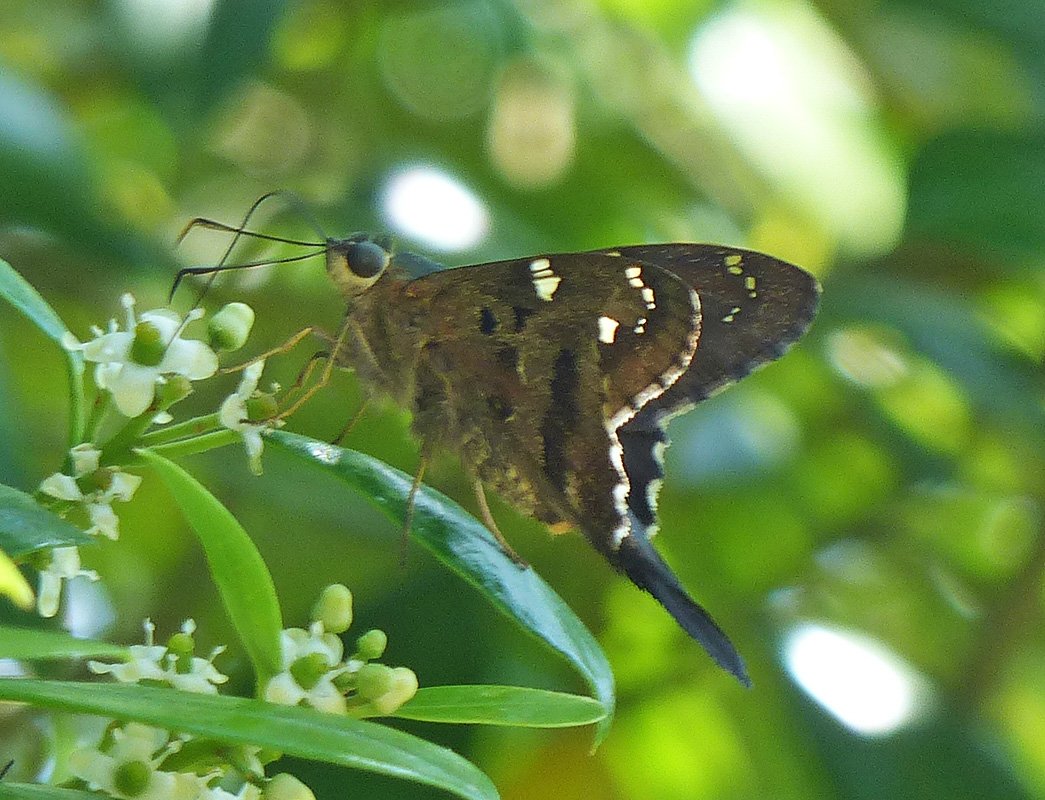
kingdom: Animalia
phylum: Arthropoda
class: Insecta
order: Lepidoptera
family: Hesperiidae
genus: Urbanus
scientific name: Urbanus proteus
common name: Long-tailed Skipper
